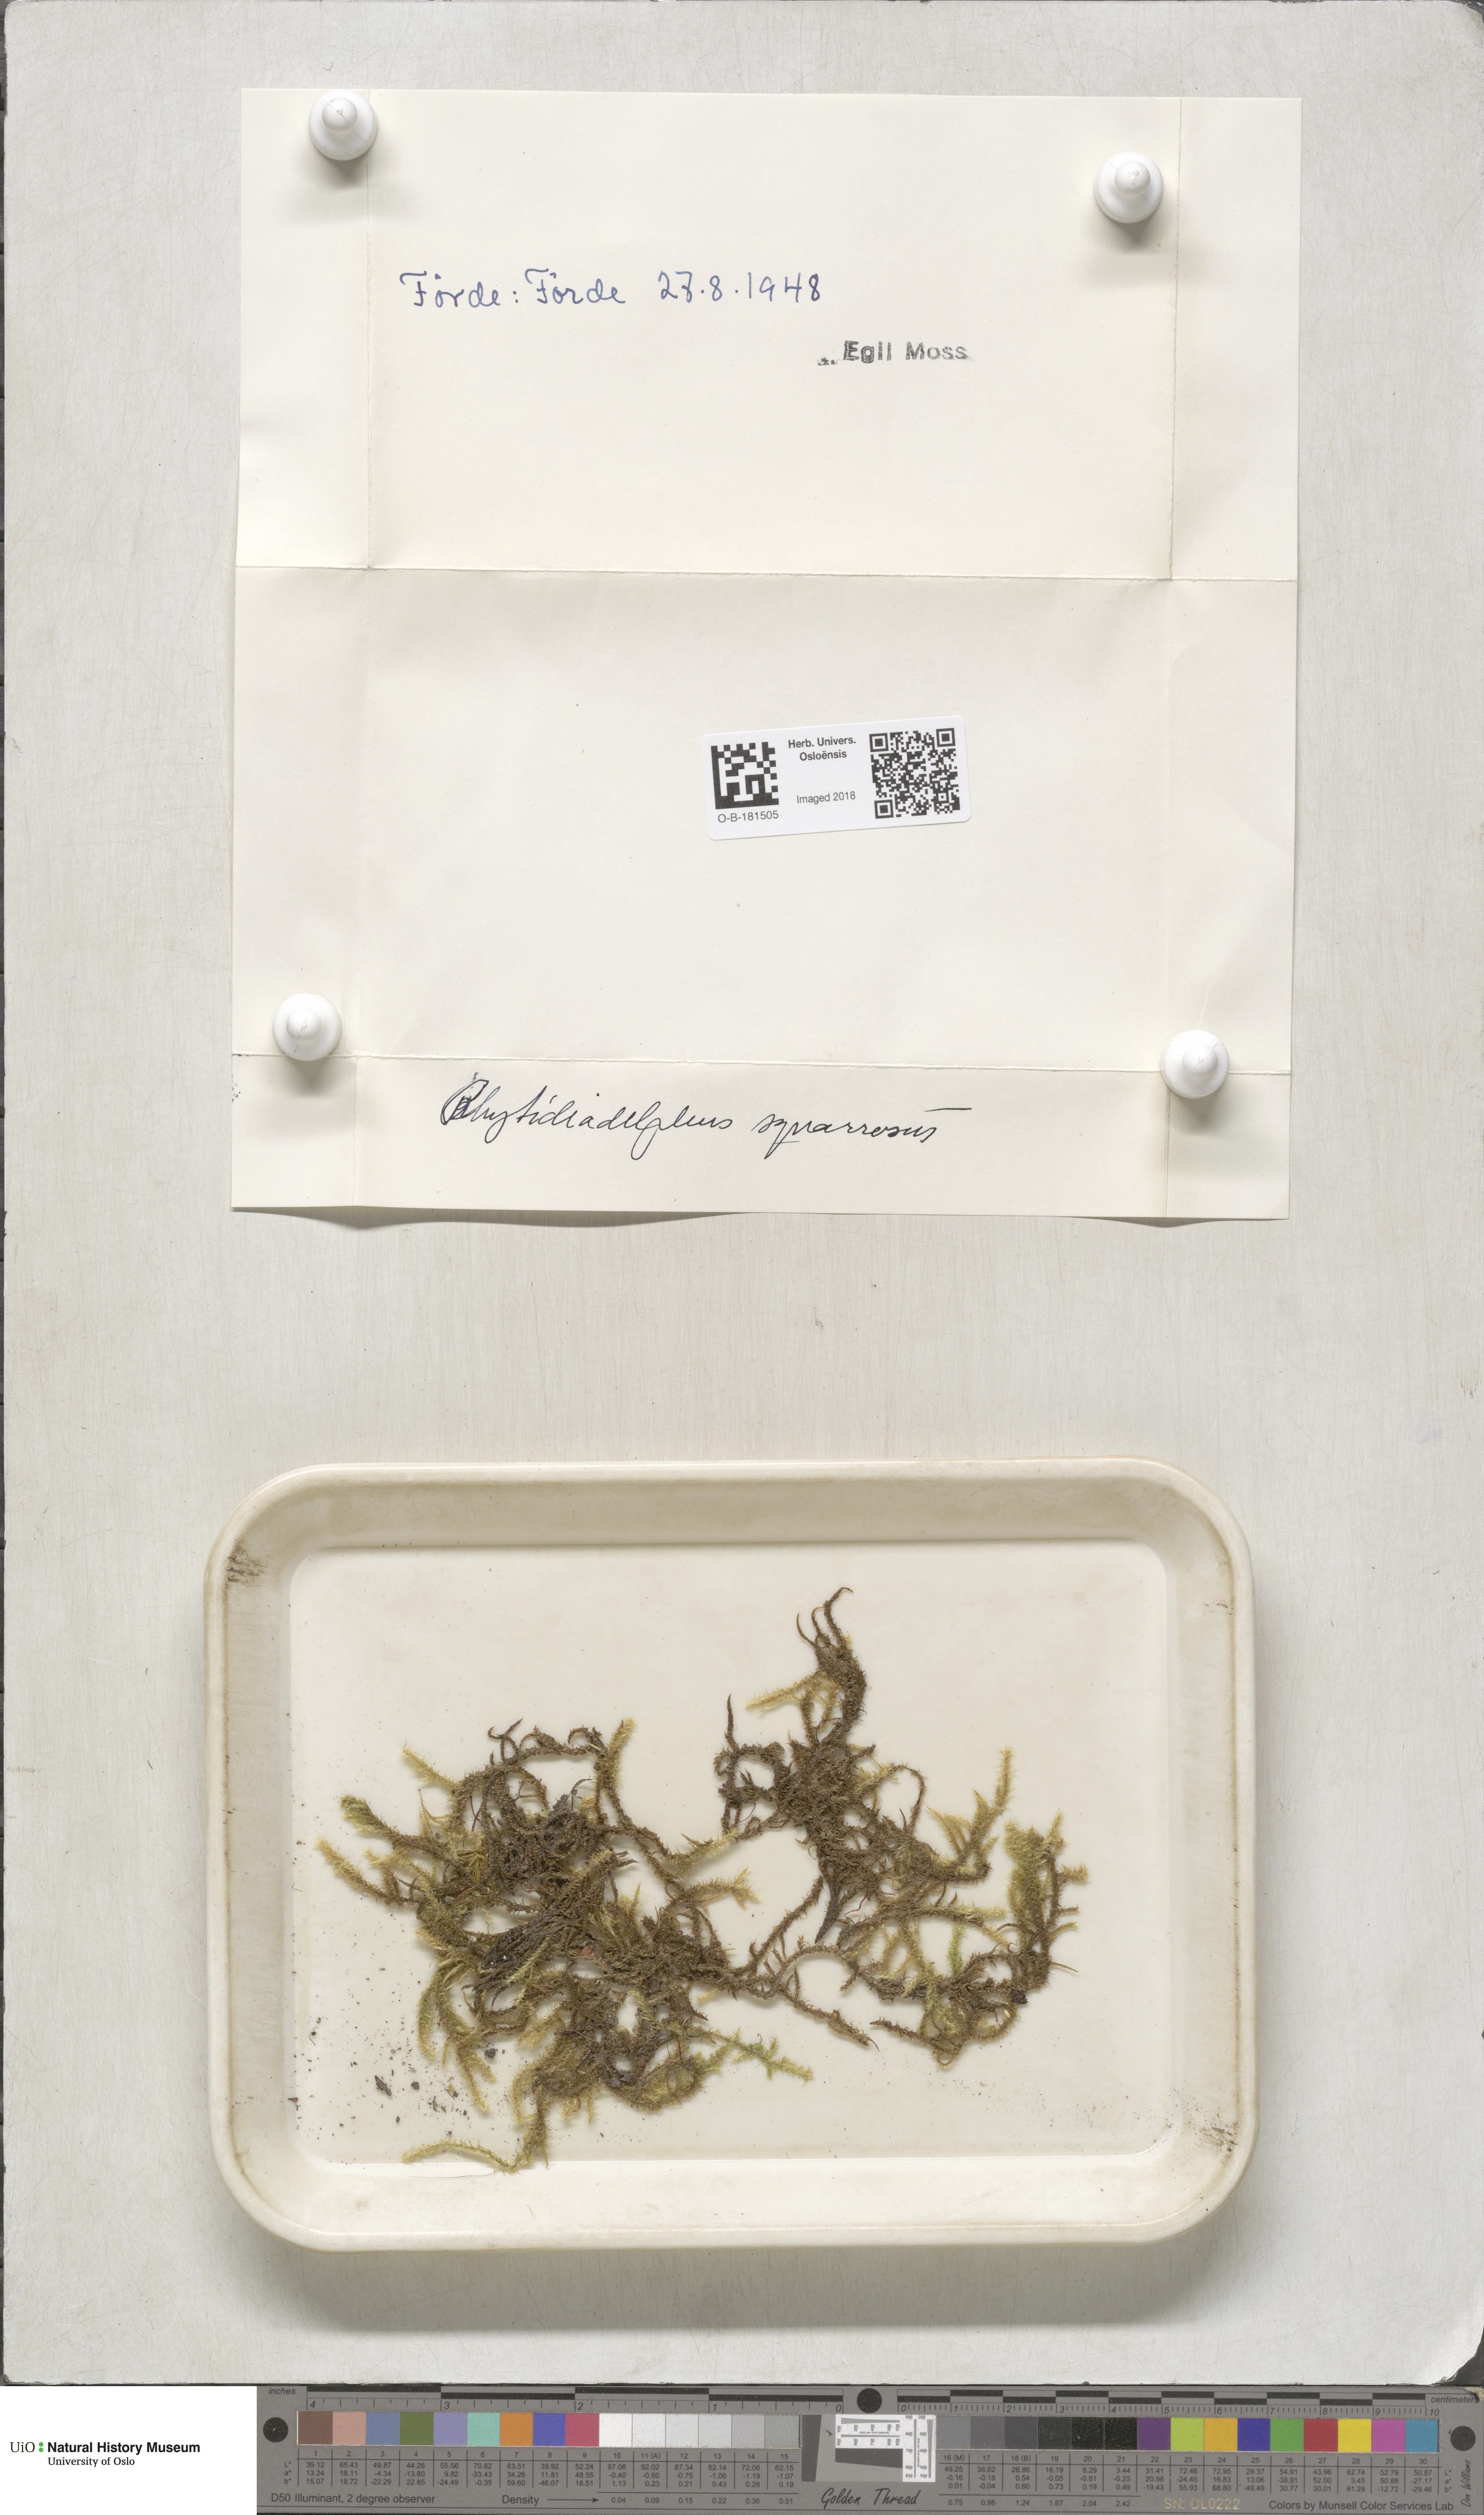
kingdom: Plantae
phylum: Bryophyta
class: Bryopsida
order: Hypnales
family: Hylocomiaceae
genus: Rhytidiadelphus
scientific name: Rhytidiadelphus squarrosus
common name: Springy turf-moss
